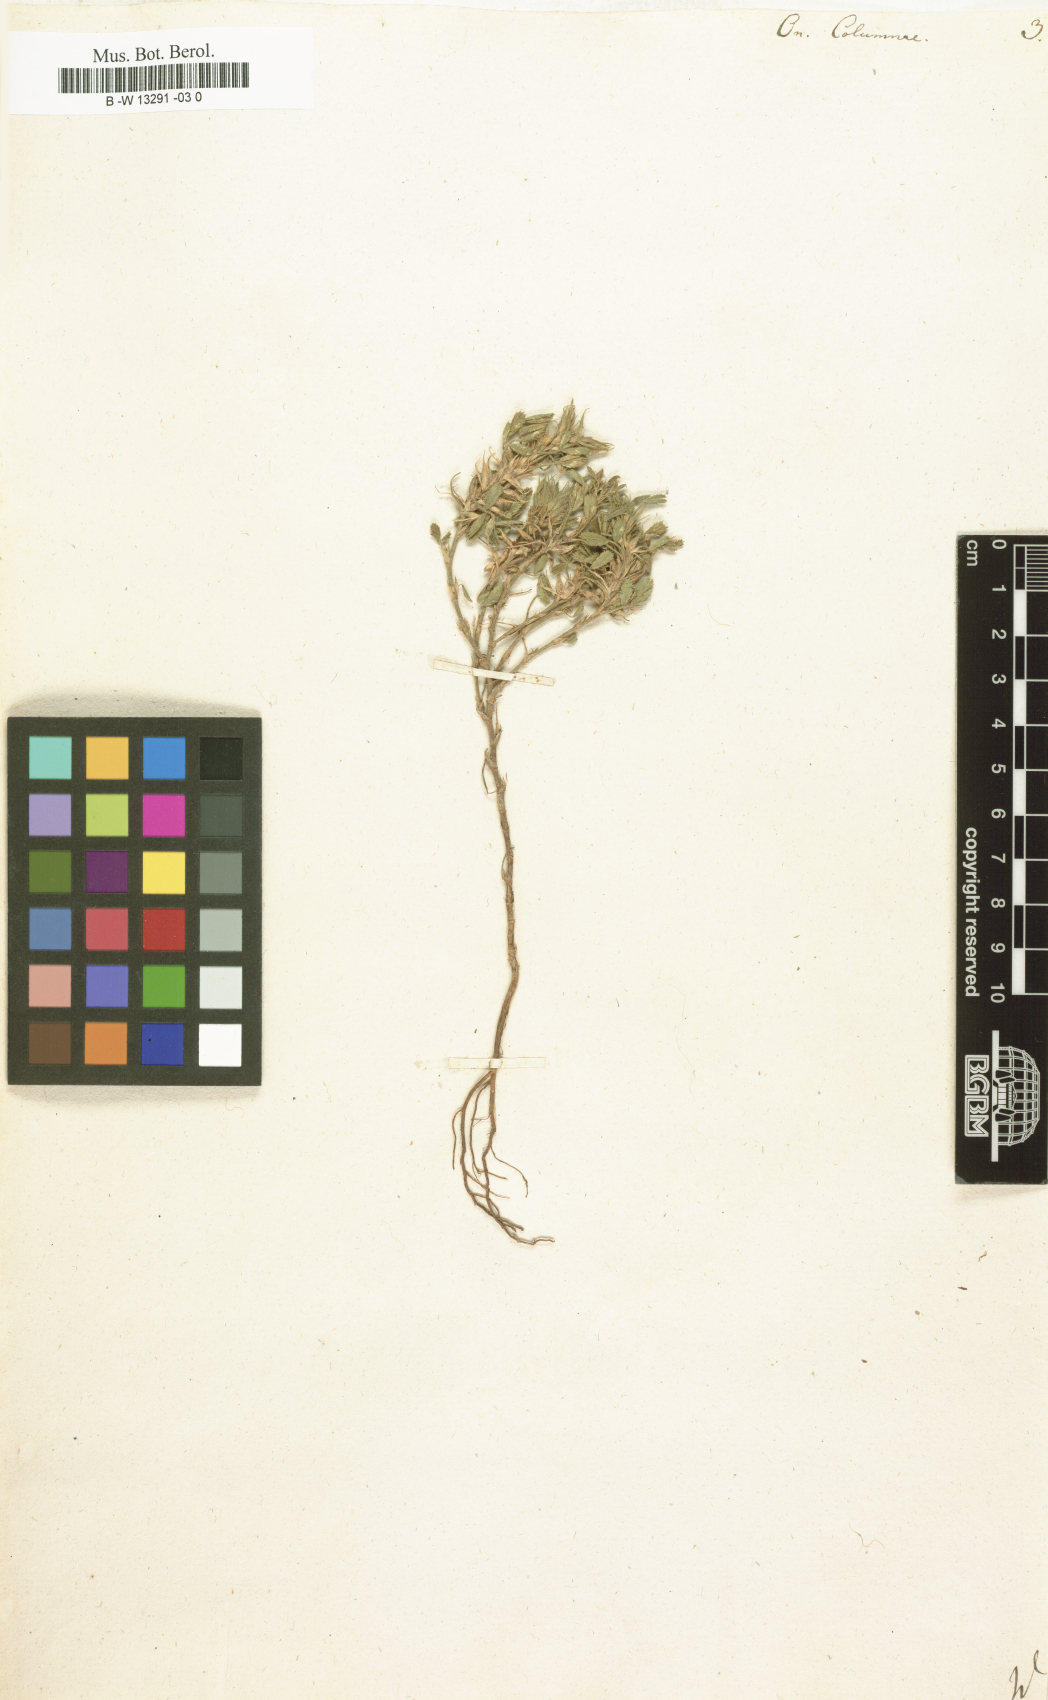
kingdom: Plantae
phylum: Tracheophyta
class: Magnoliopsida
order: Fabales
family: Fabaceae
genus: Ononis
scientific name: Ononis pusilla
